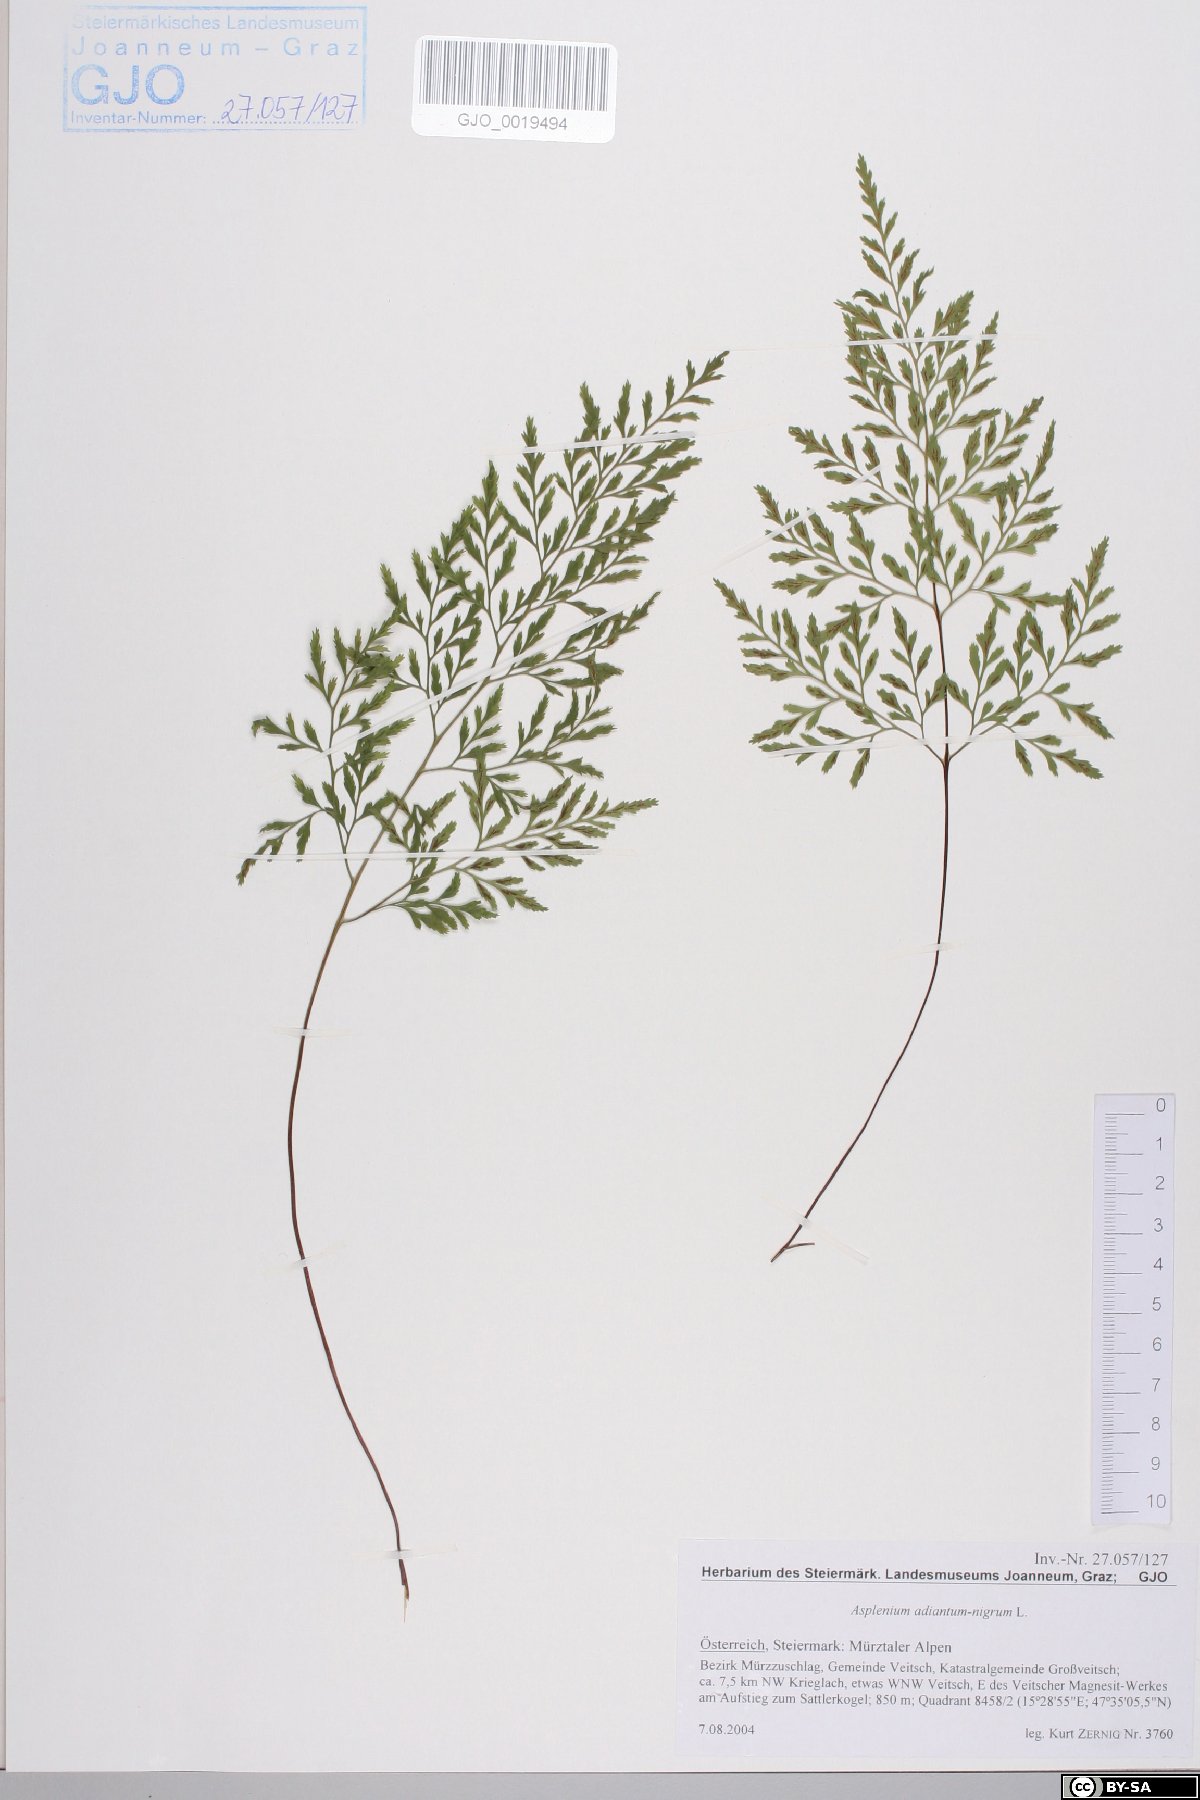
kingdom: Plantae
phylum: Tracheophyta
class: Polypodiopsida
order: Polypodiales
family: Aspleniaceae
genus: Asplenium
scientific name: Asplenium adiantum-nigrum
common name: Black spleenwort
